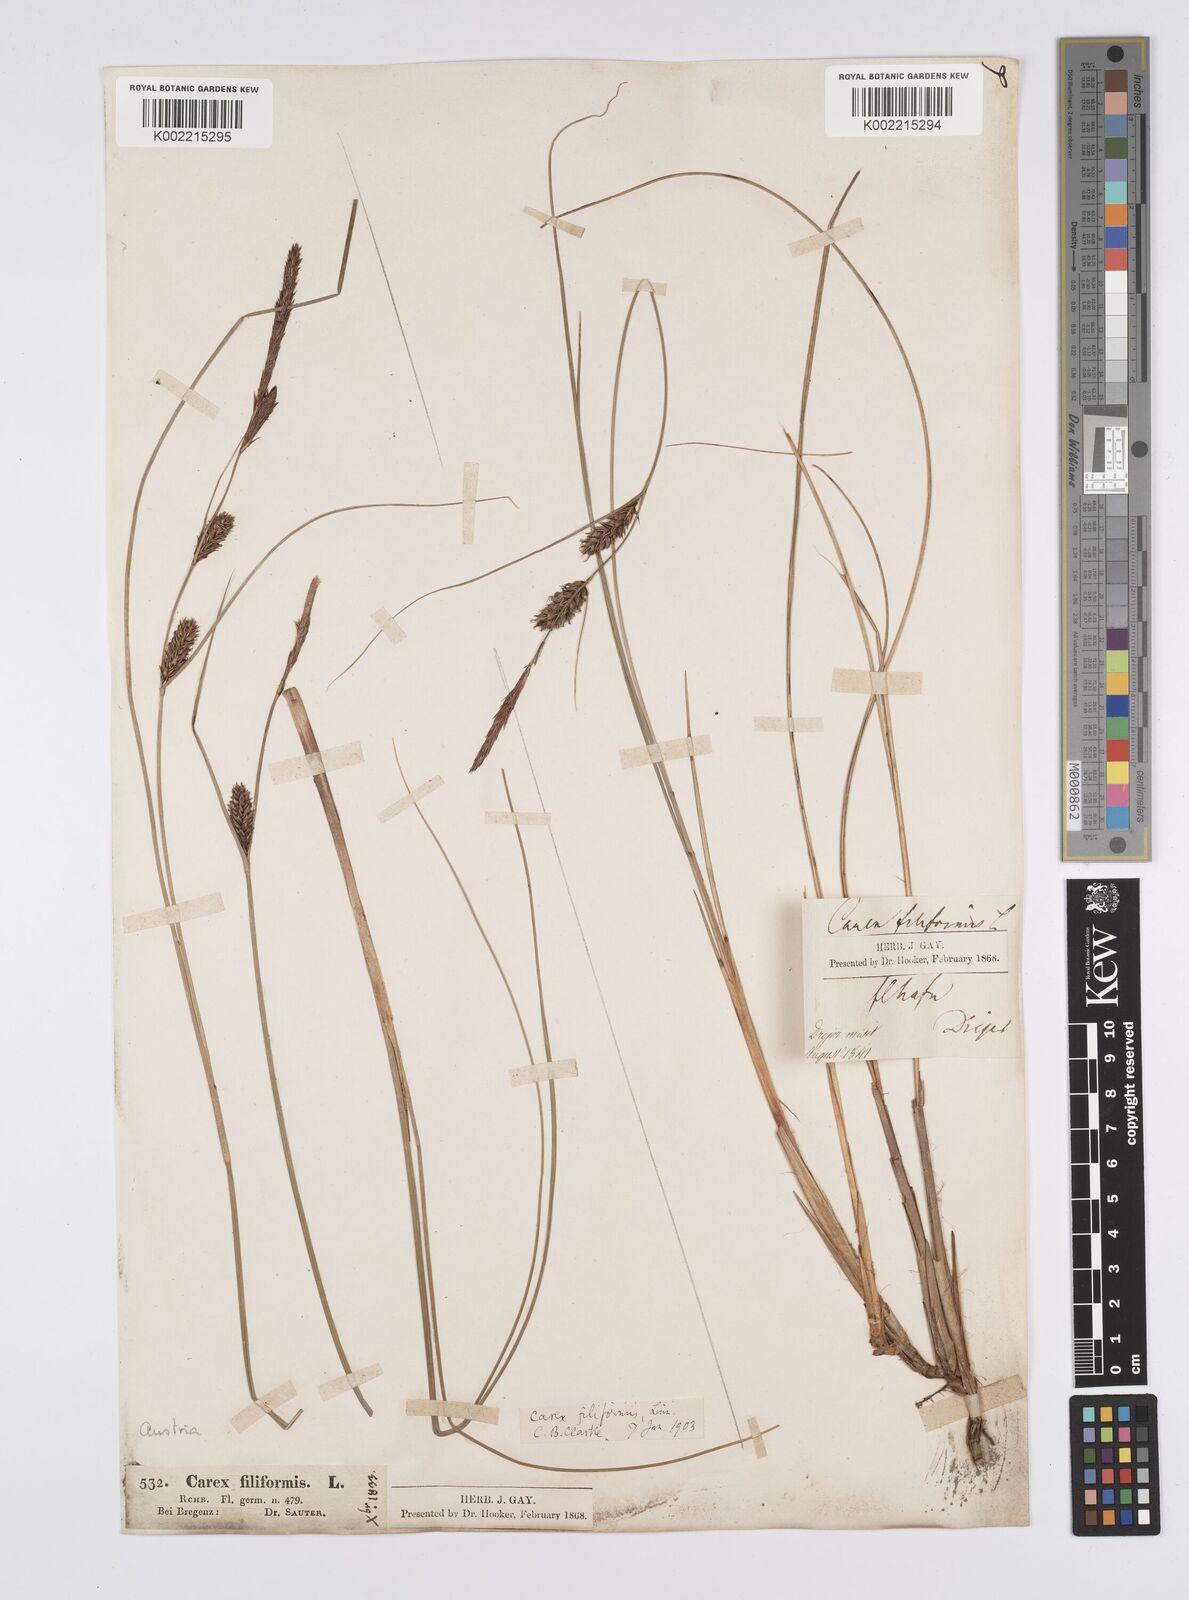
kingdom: Plantae
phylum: Tracheophyta
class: Liliopsida
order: Poales
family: Cyperaceae
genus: Carex
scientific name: Carex lasiocarpa
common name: Slender sedge
